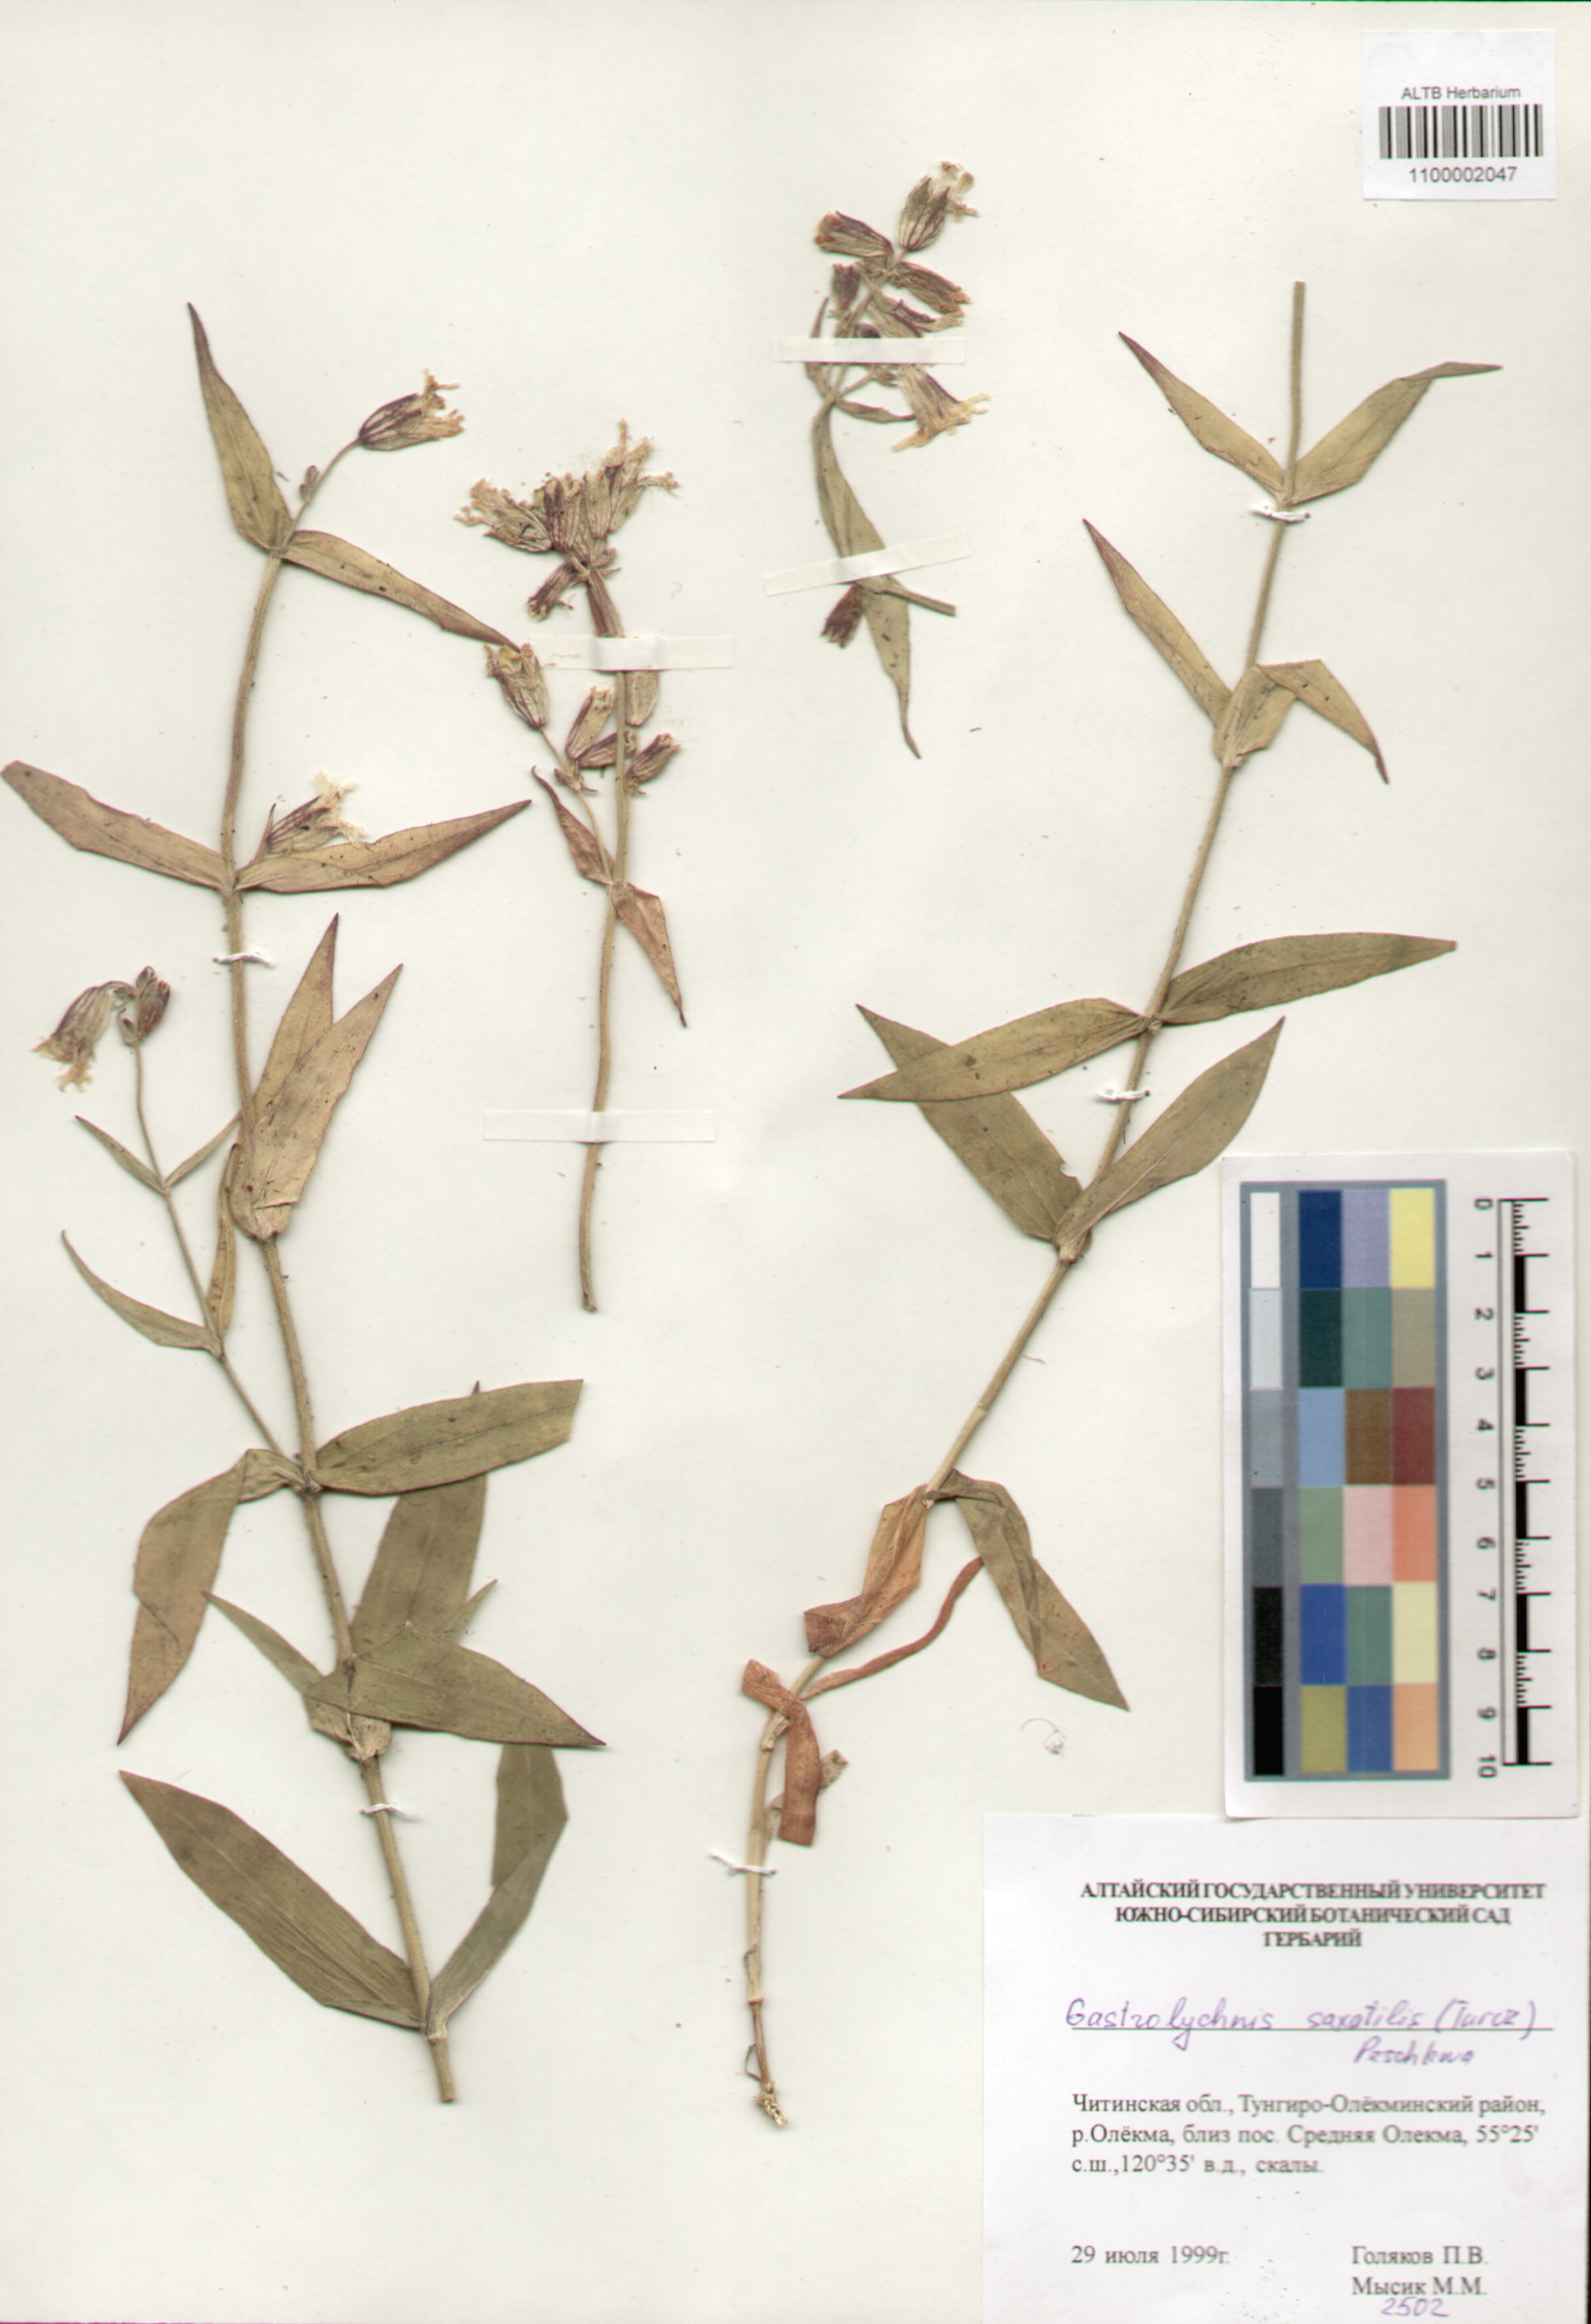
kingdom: Plantae
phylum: Tracheophyta
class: Magnoliopsida
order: Caryophyllales
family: Caryophyllaceae
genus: Silene
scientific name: Silene tolmatchevii
